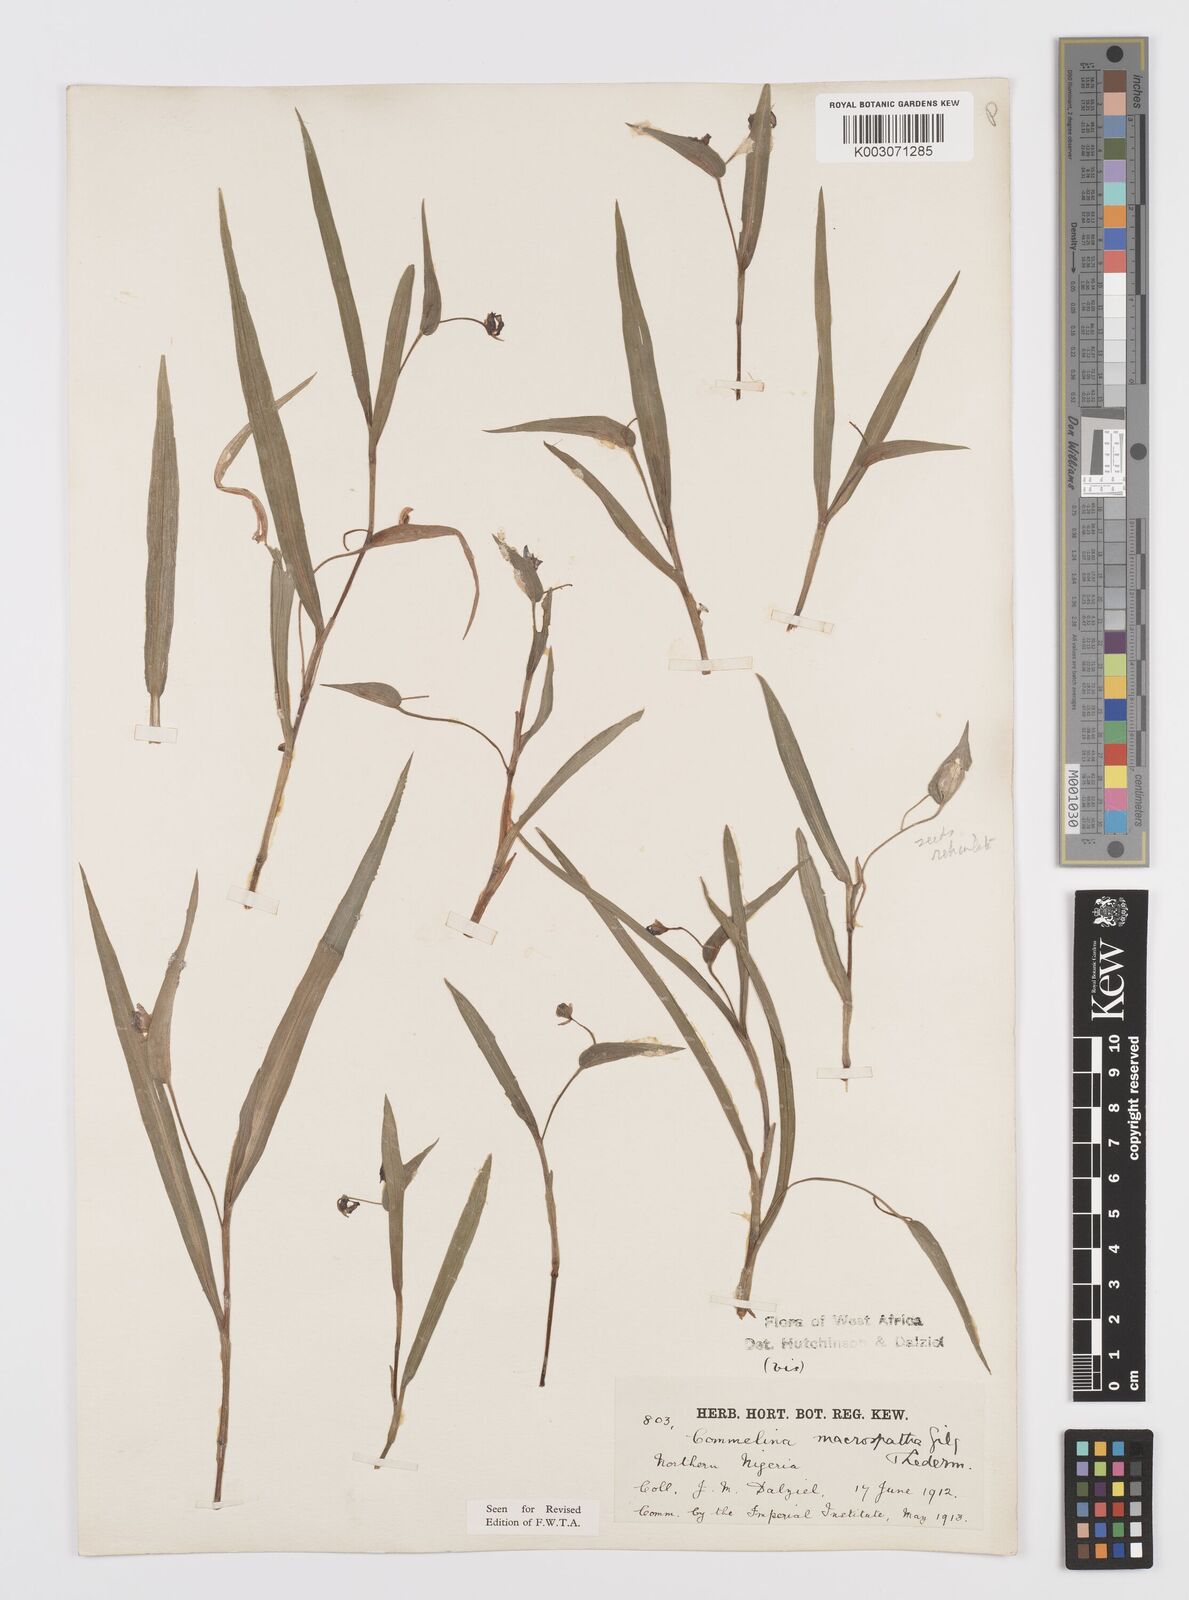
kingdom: Plantae
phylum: Tracheophyta
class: Liliopsida
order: Commelinales
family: Commelinaceae
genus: Commelina
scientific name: Commelina macrospatha
